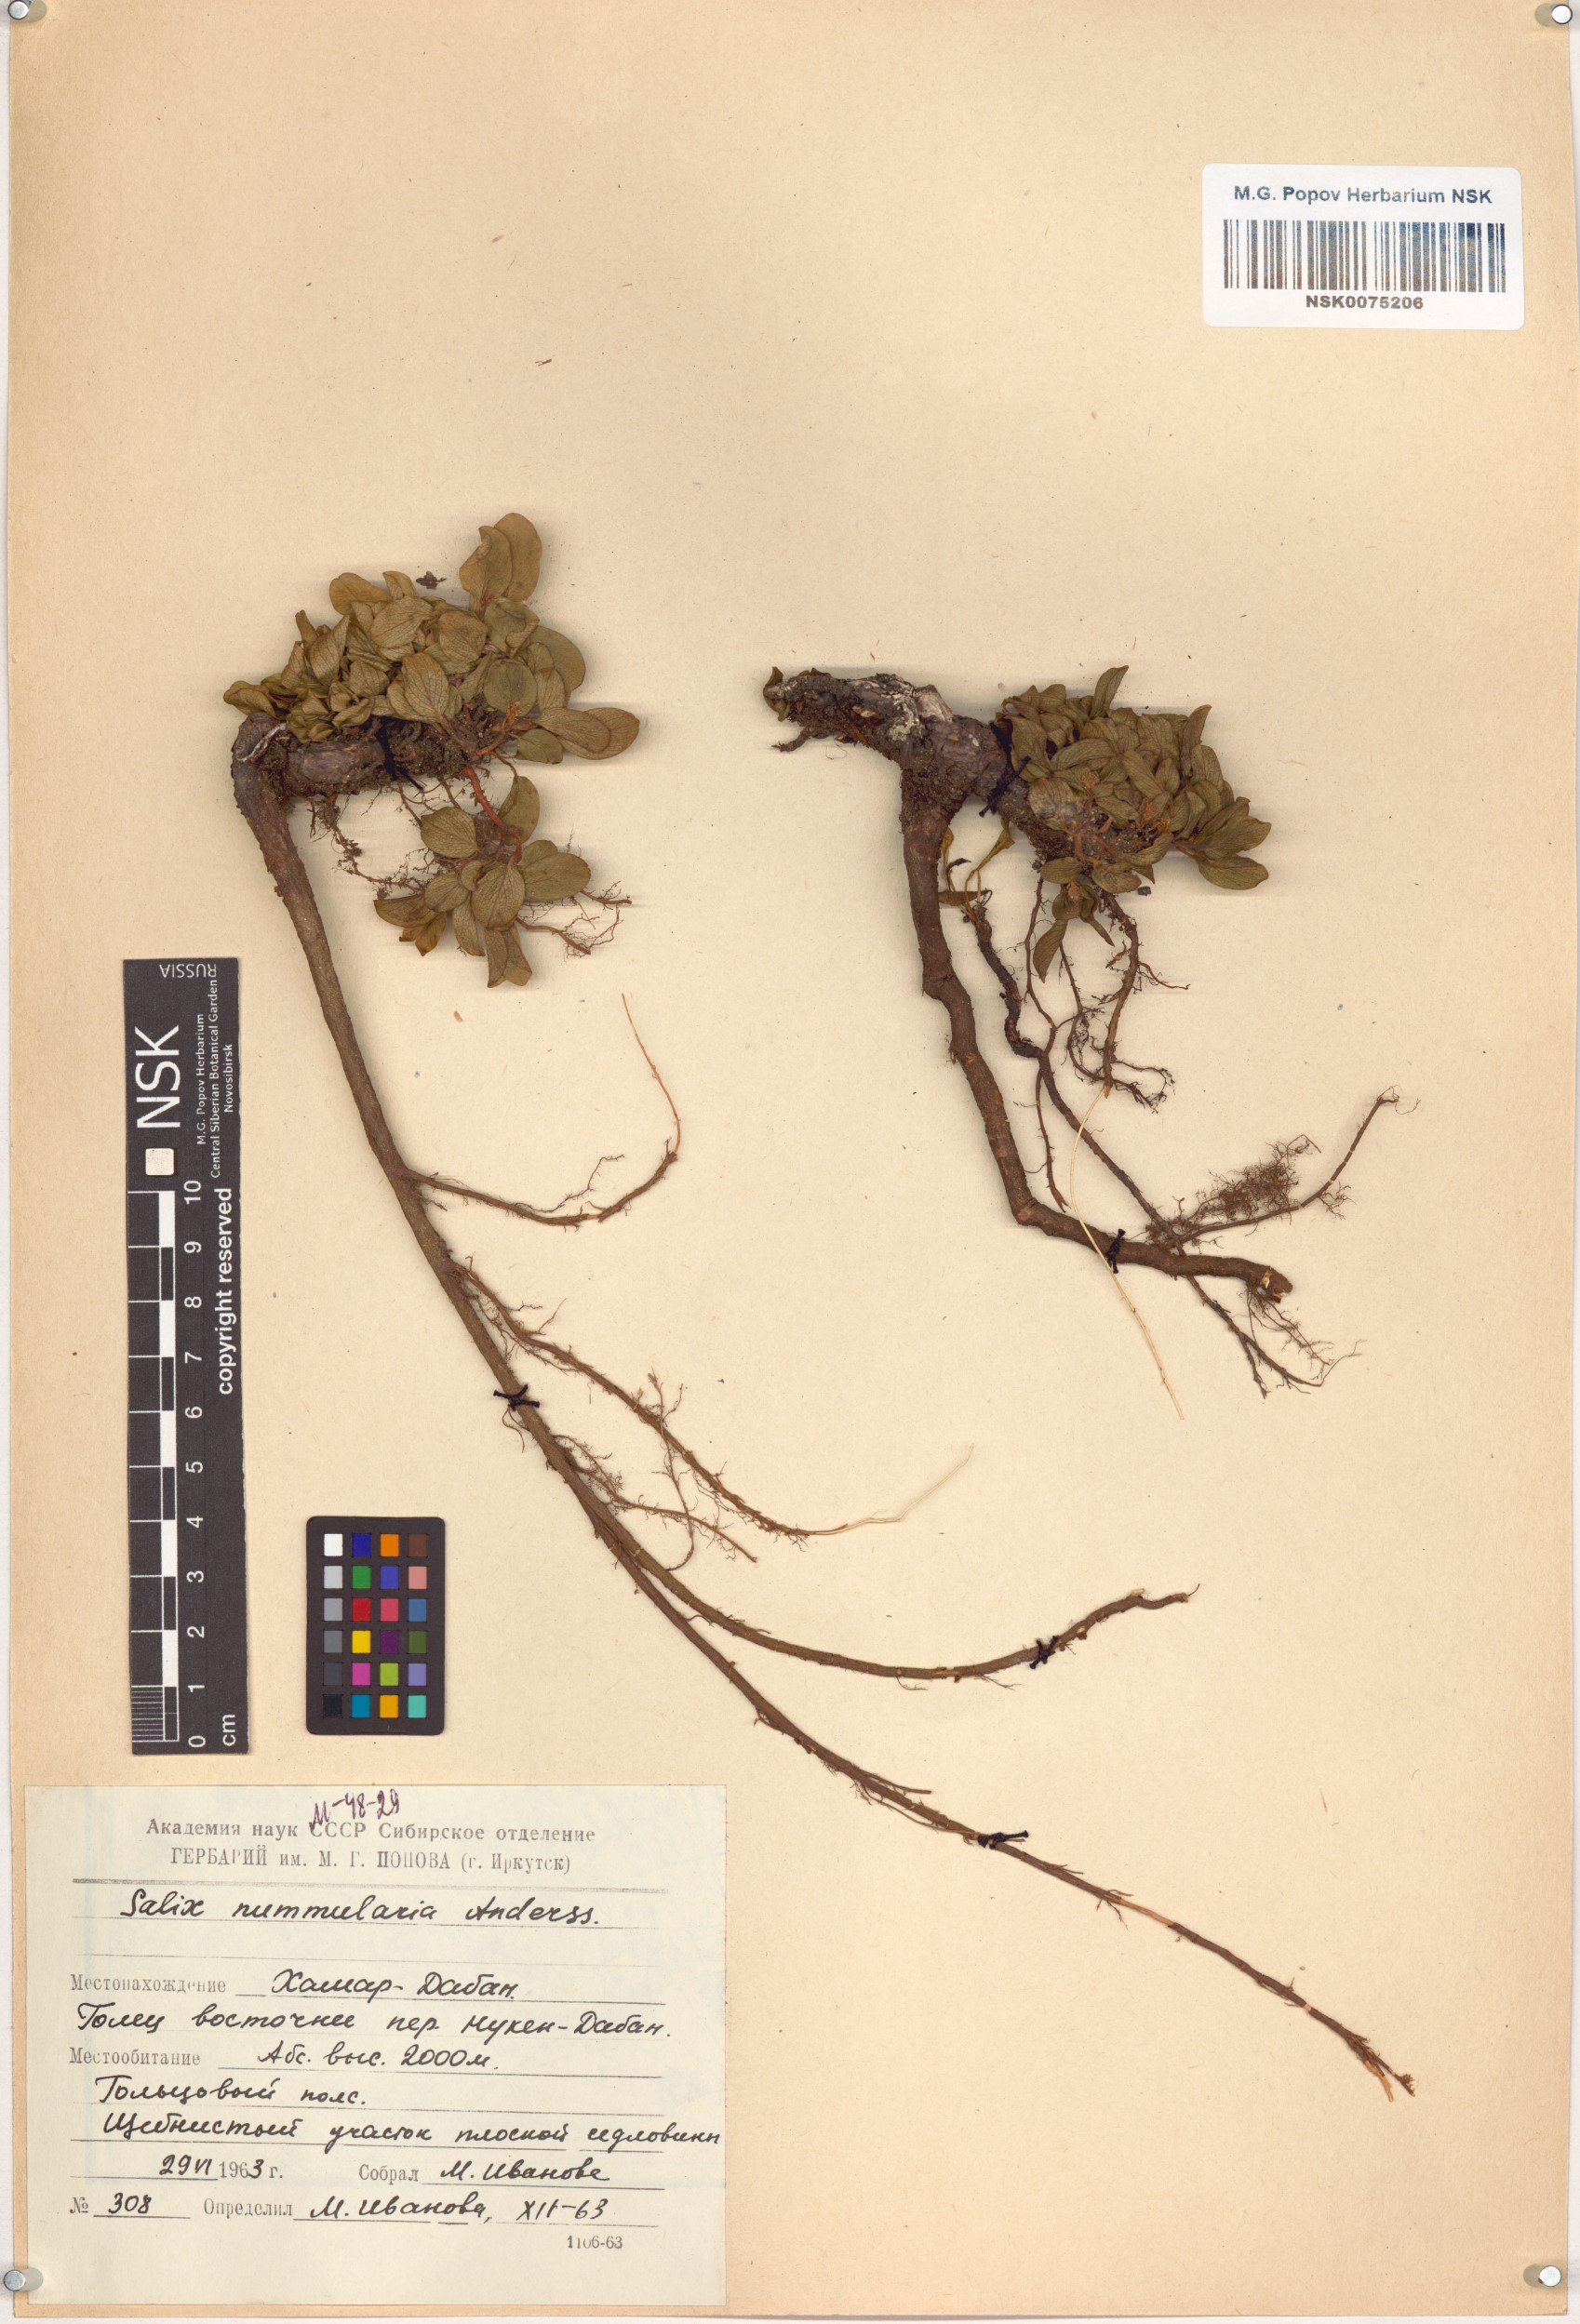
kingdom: Plantae
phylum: Tracheophyta
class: Magnoliopsida
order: Malpighiales
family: Salicaceae
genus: Salix
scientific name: Salix nummularia
